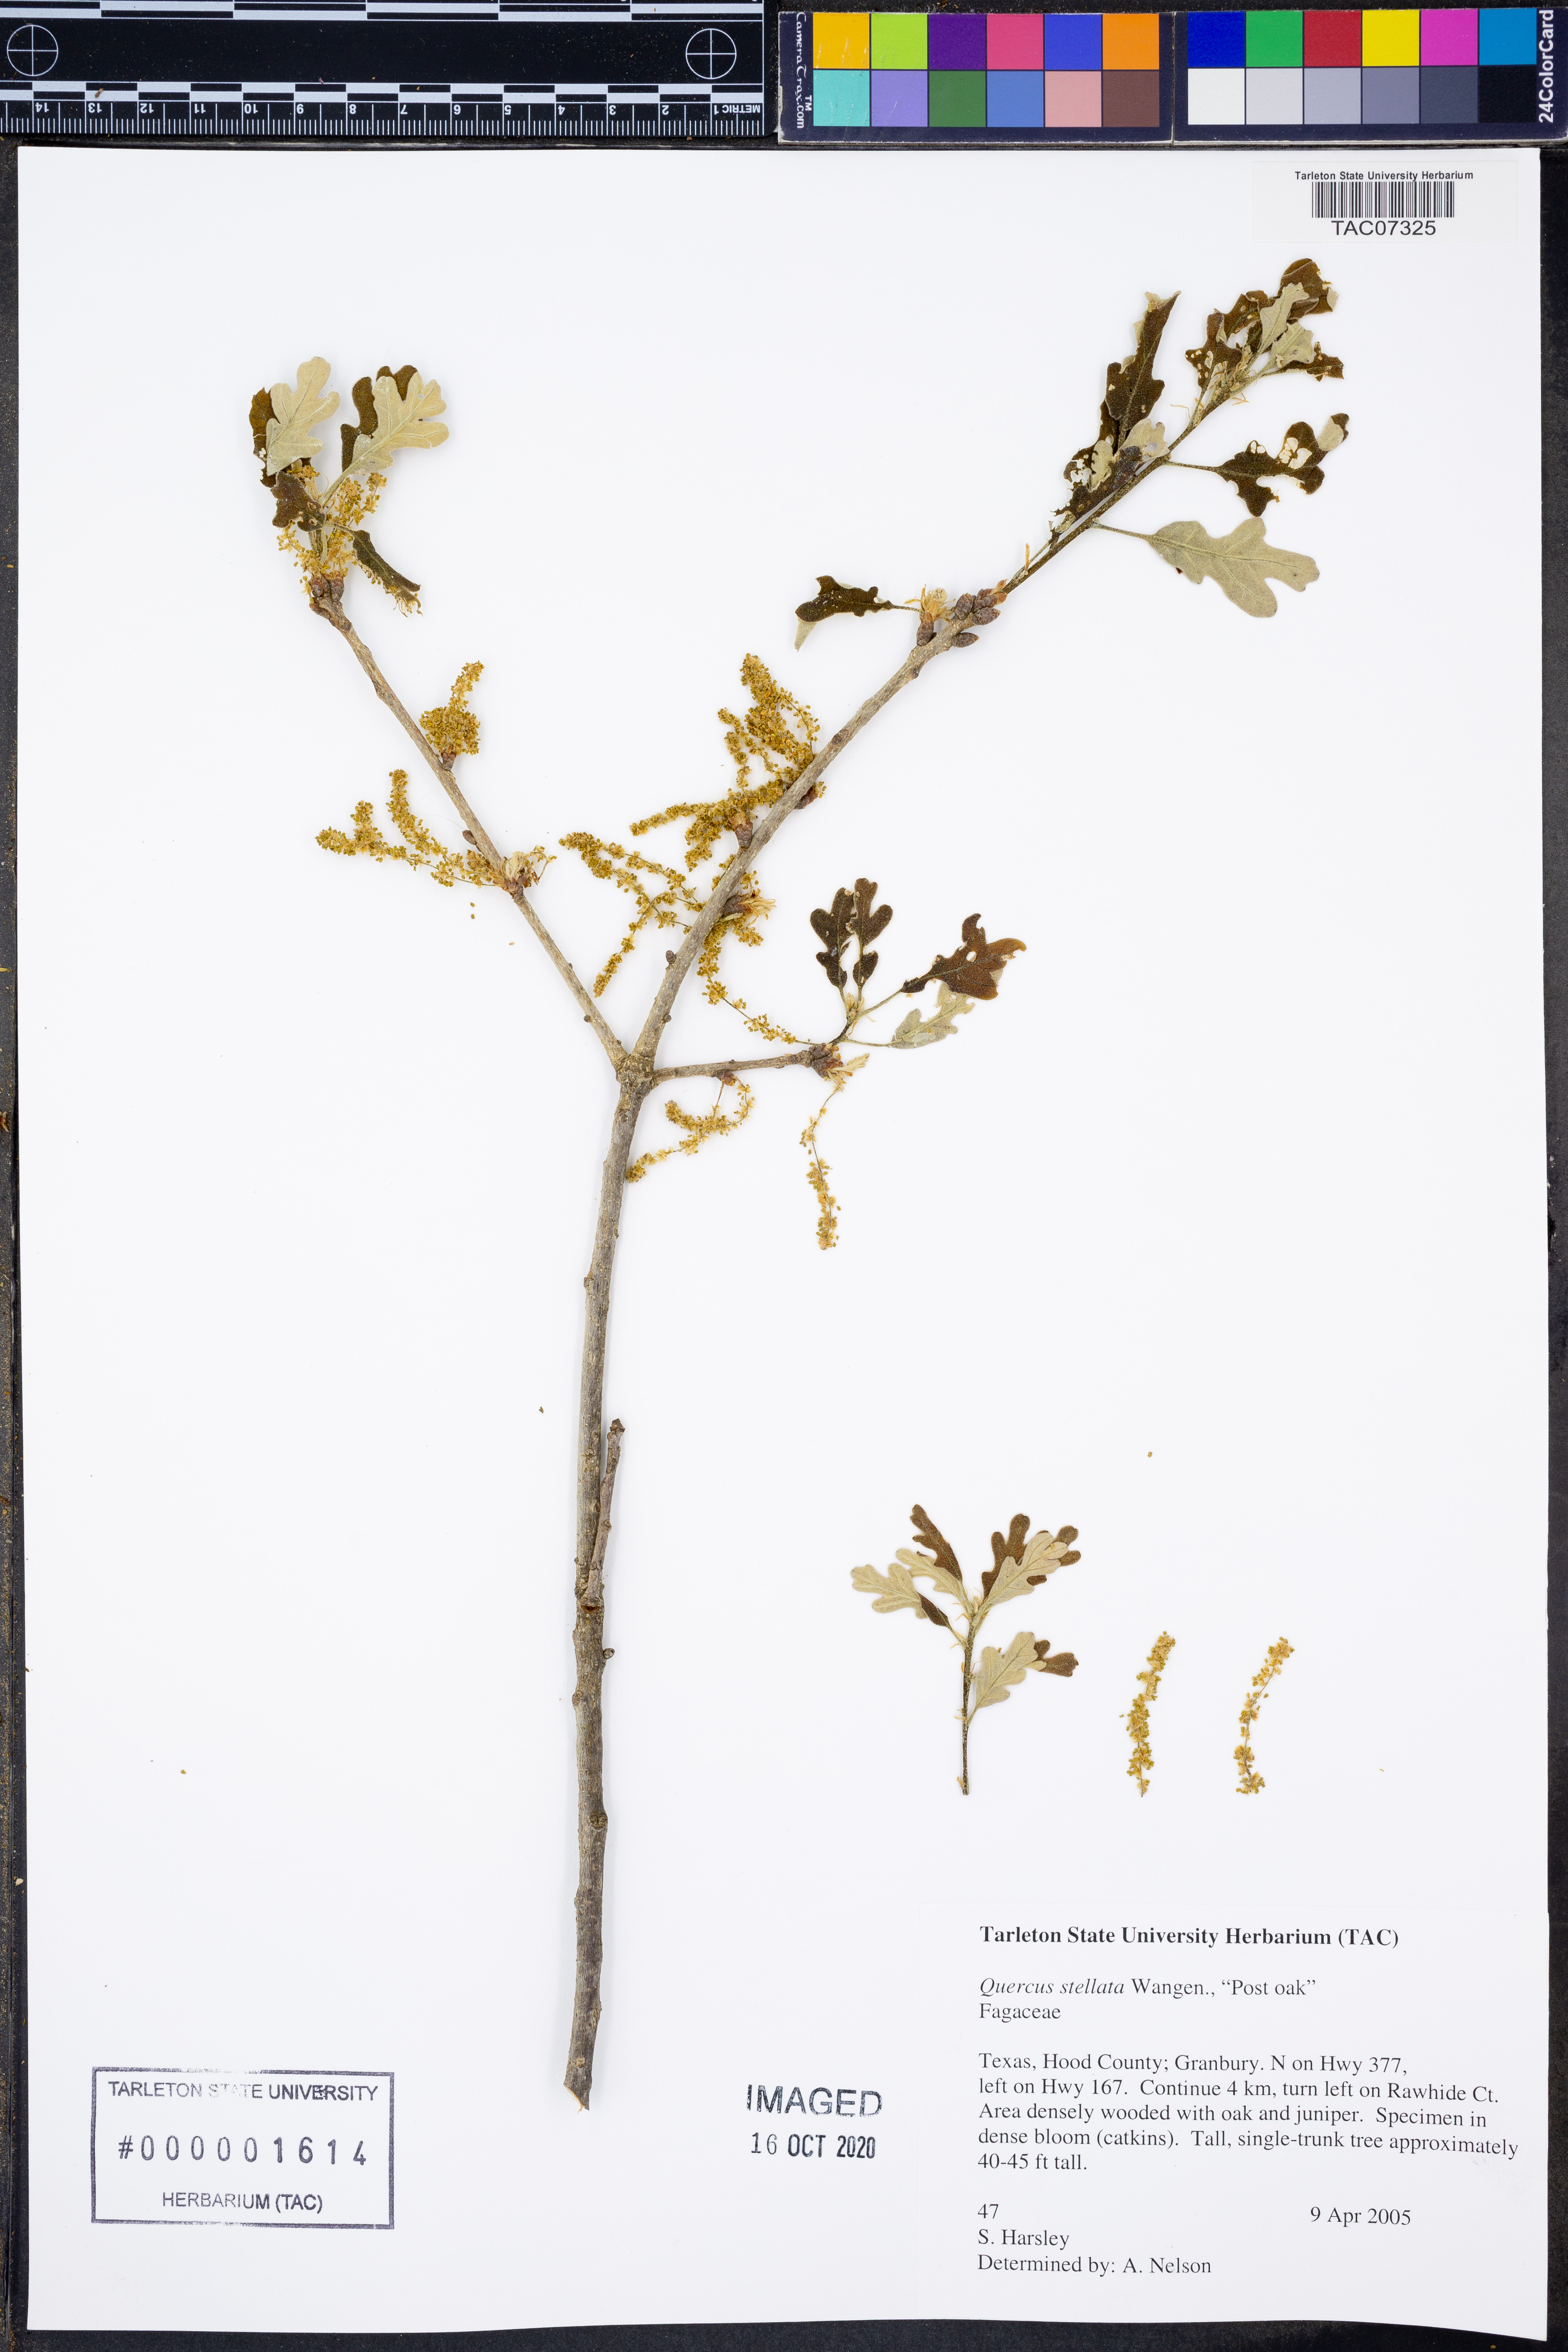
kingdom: Plantae
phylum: Tracheophyta
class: Magnoliopsida
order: Fagales
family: Fagaceae
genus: Quercus
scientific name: Quercus stellata
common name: Post oak
